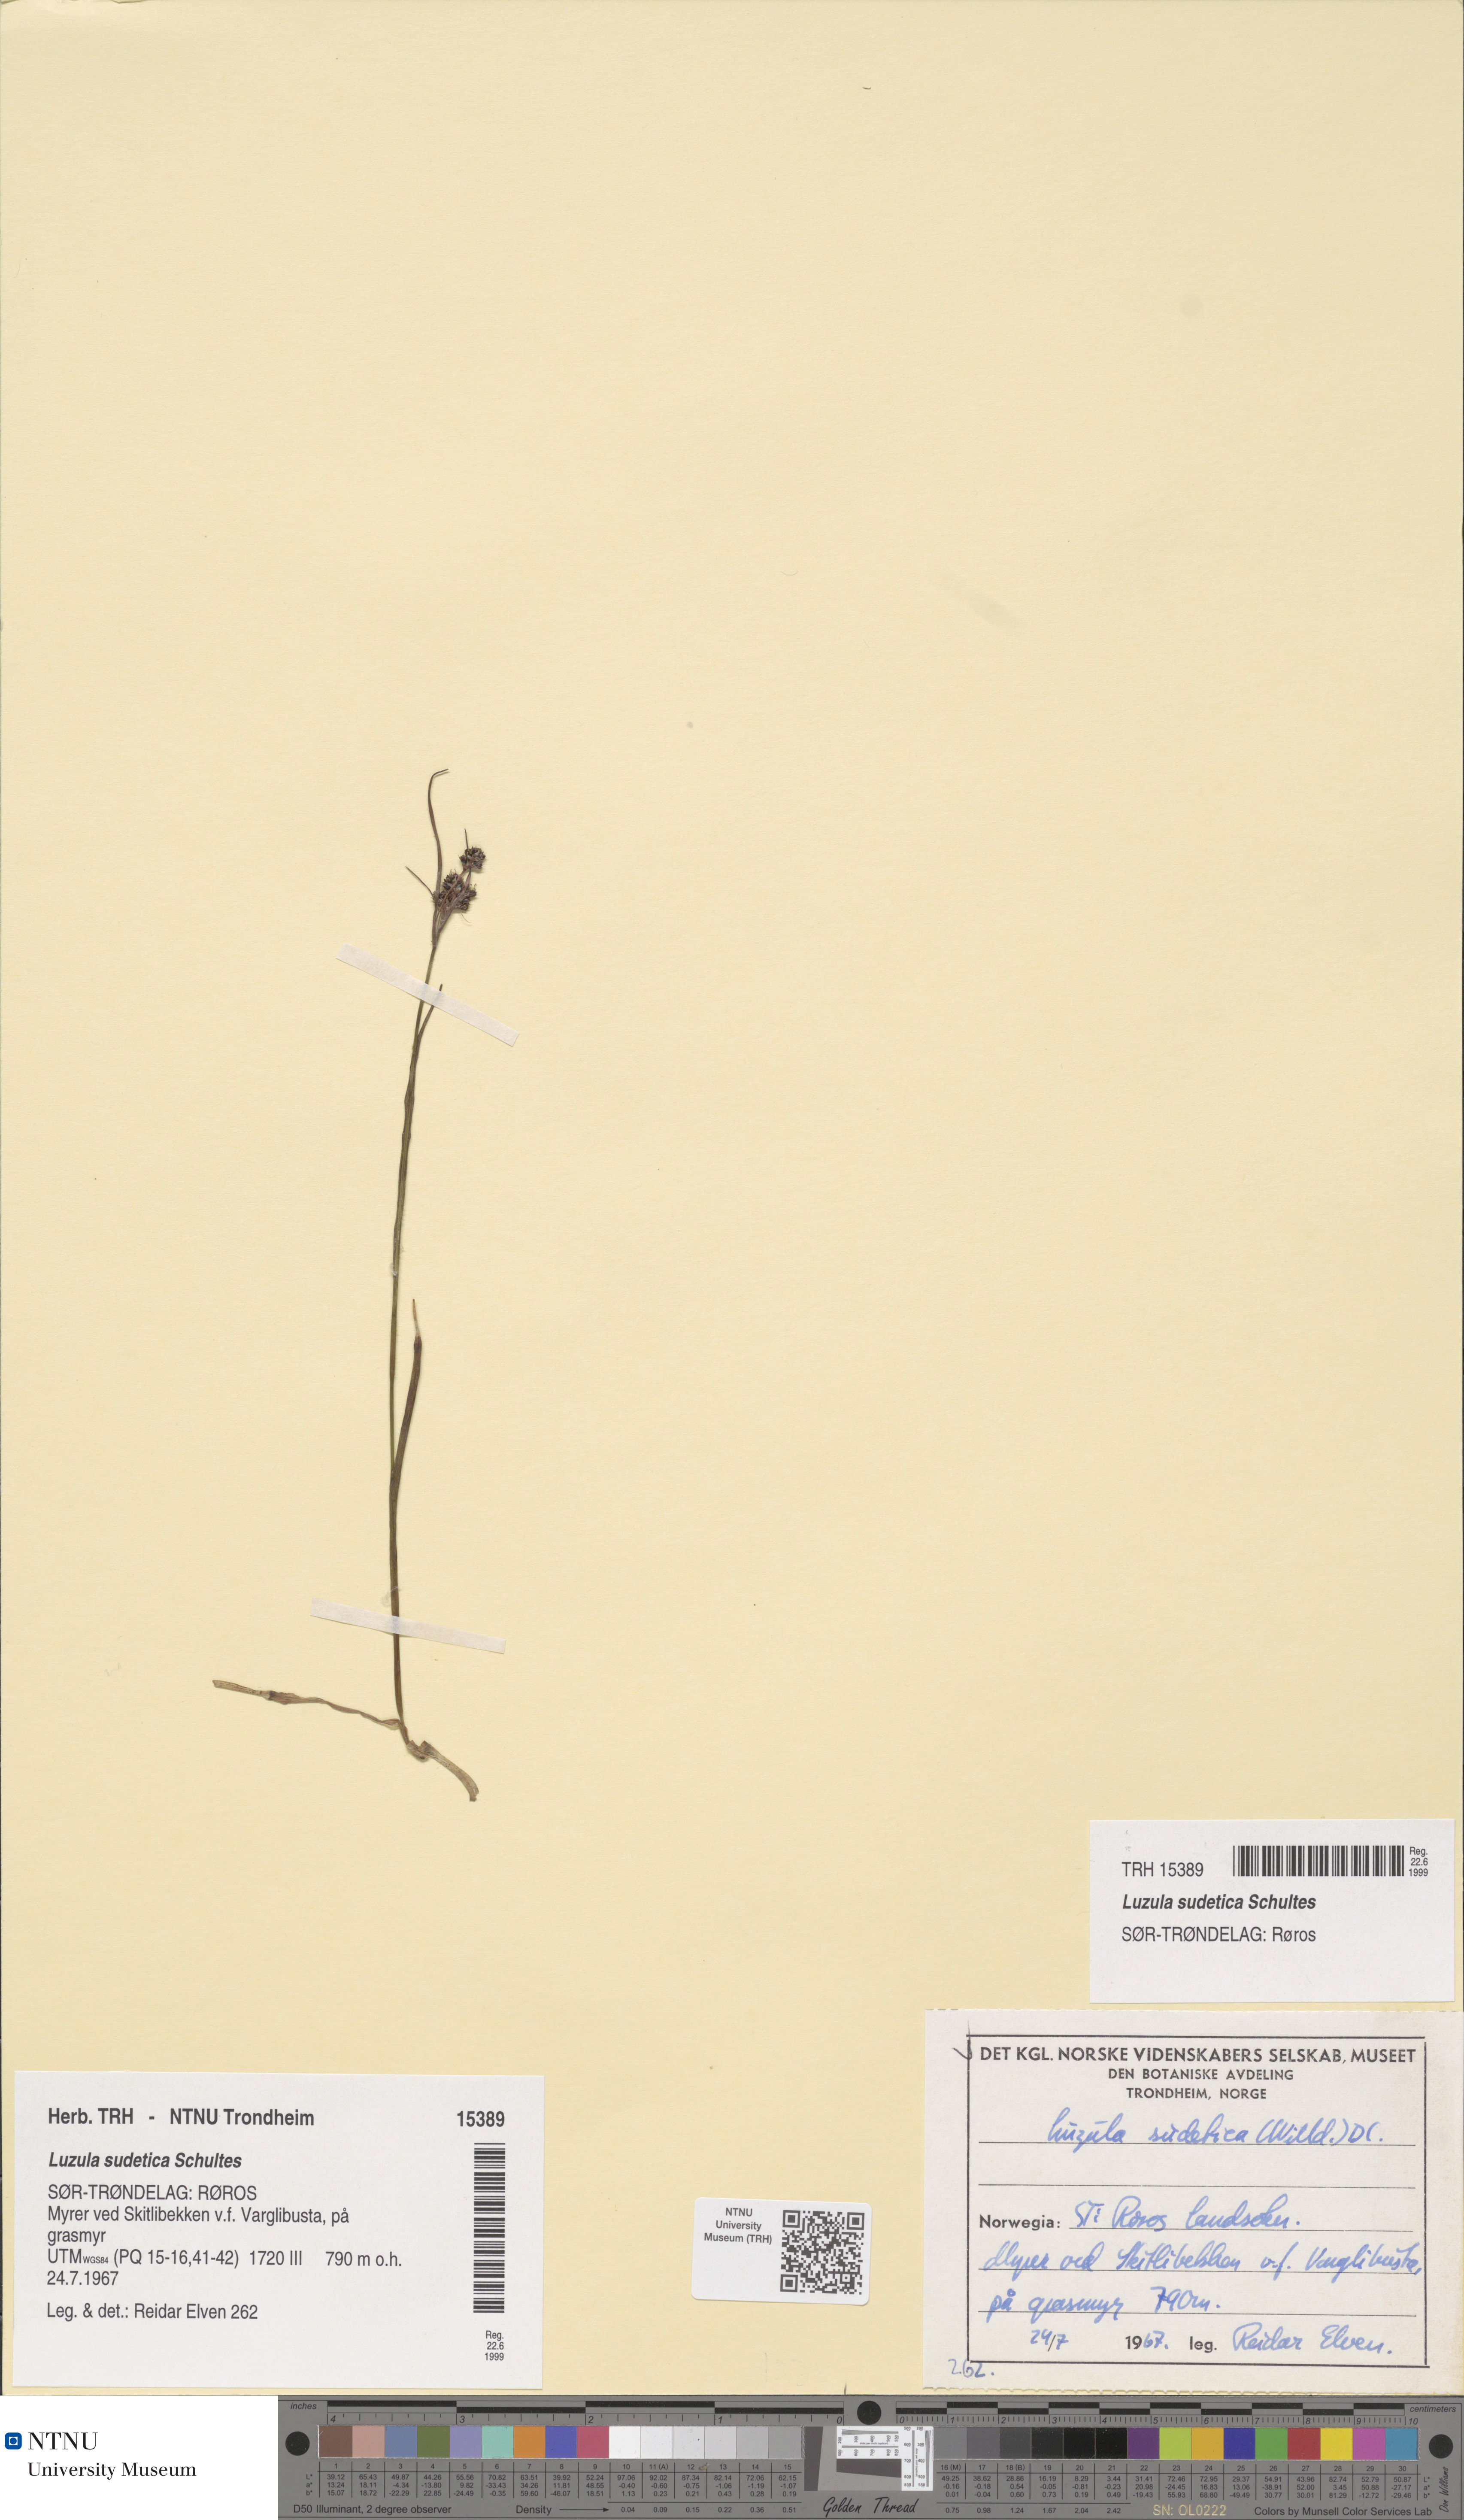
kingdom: Plantae
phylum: Tracheophyta
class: Liliopsida
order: Poales
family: Juncaceae
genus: Luzula
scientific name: Luzula sudetica
